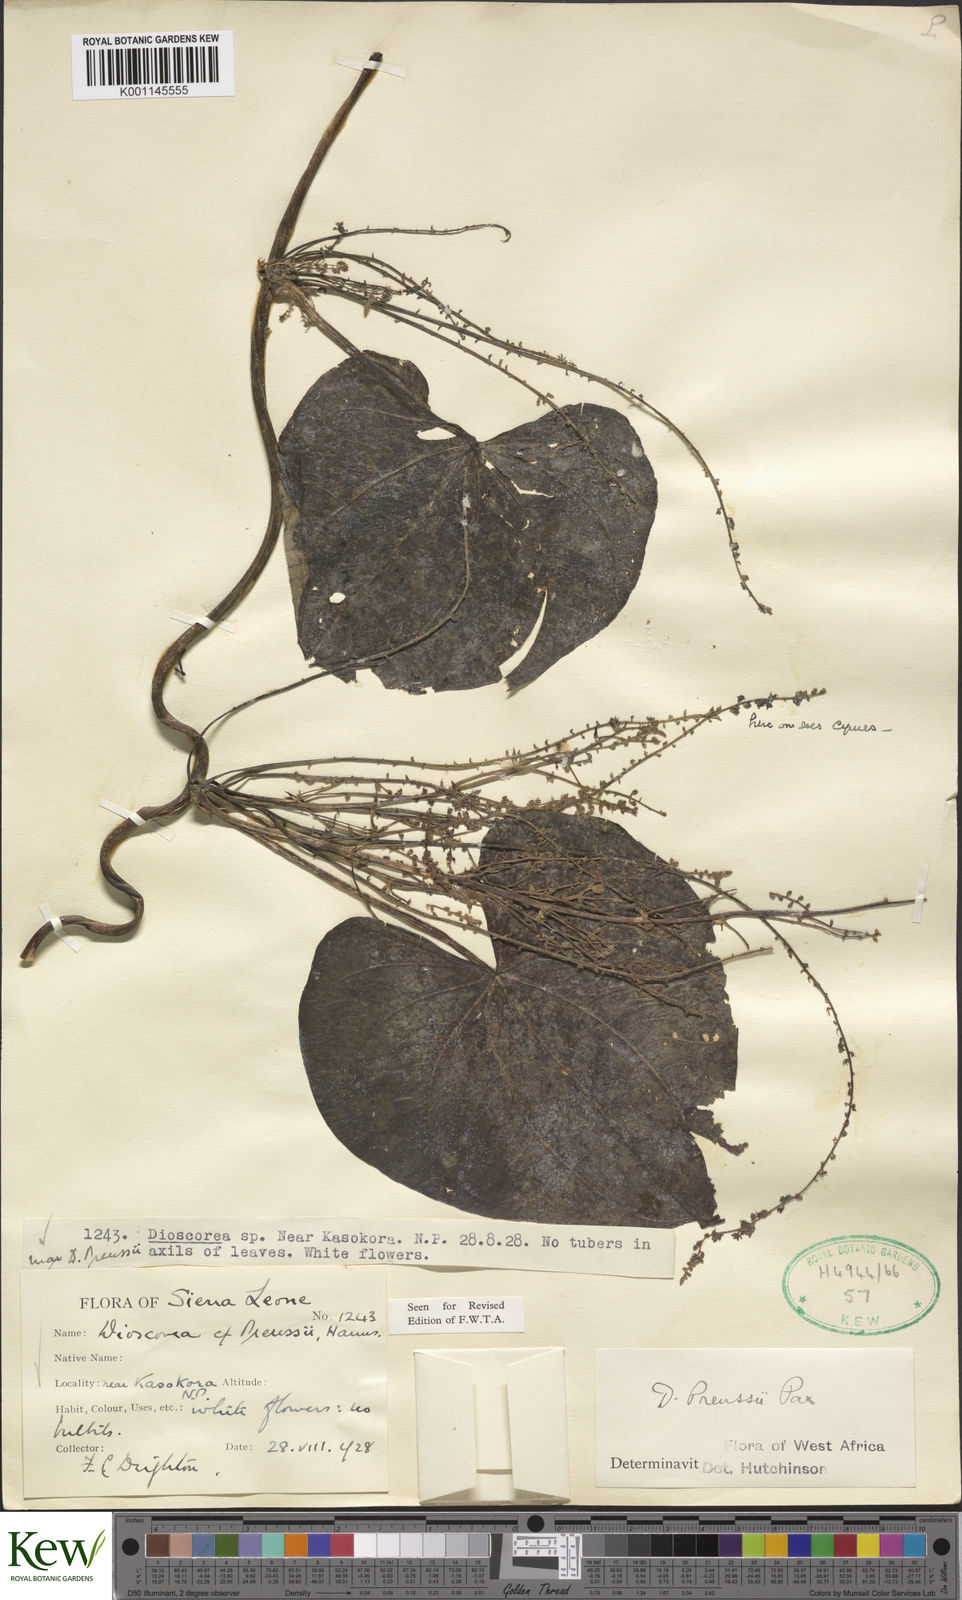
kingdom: Plantae
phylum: Tracheophyta
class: Liliopsida
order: Dioscoreales
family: Dioscoreaceae
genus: Dioscorea
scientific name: Dioscorea preussii
